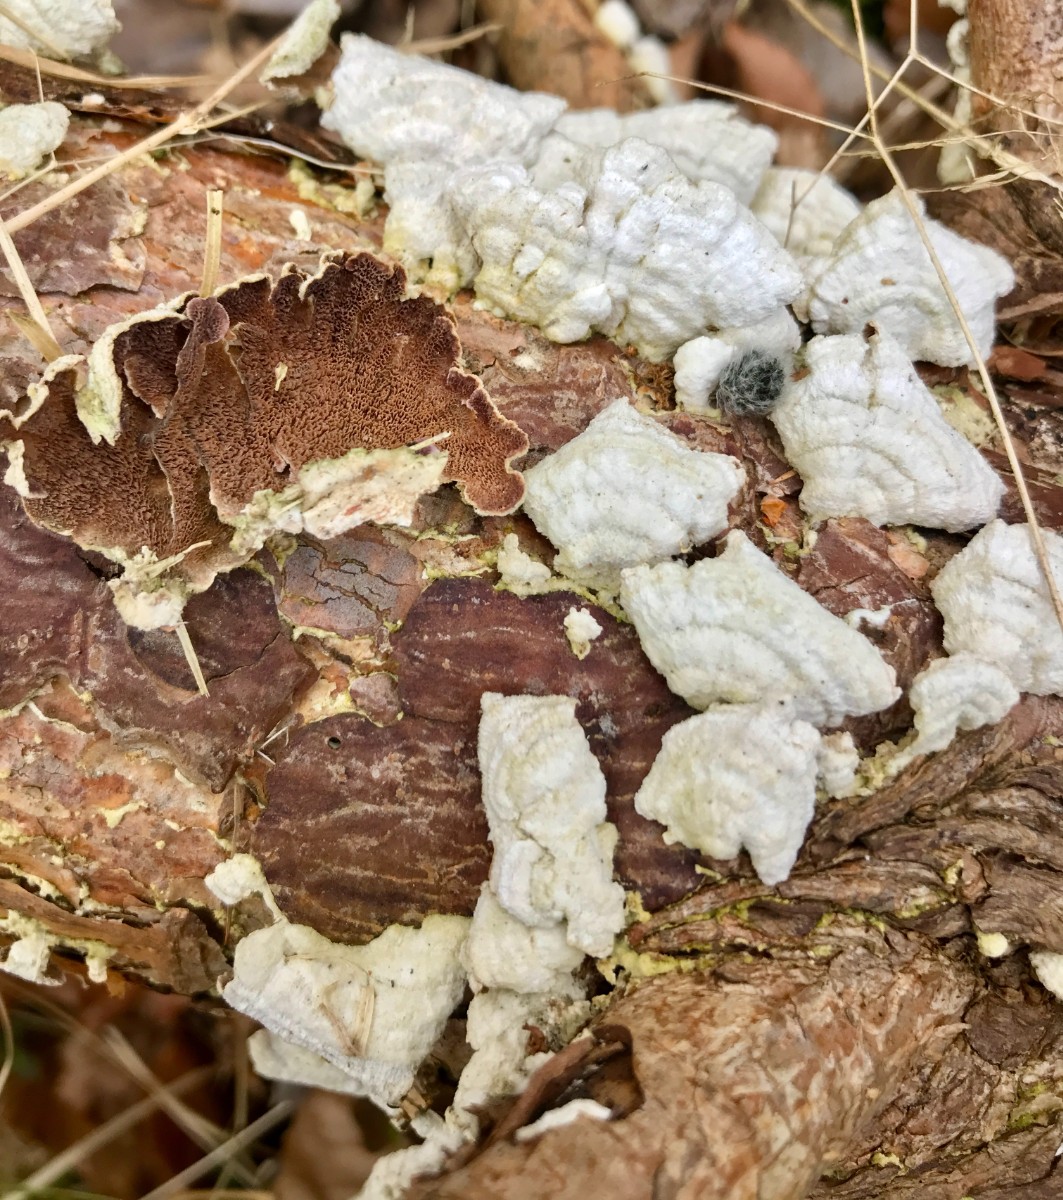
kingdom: Fungi
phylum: Basidiomycota
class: Agaricomycetes
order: Hymenochaetales
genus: Trichaptum
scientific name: Trichaptum abietinum
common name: almindelig violporesvamp
